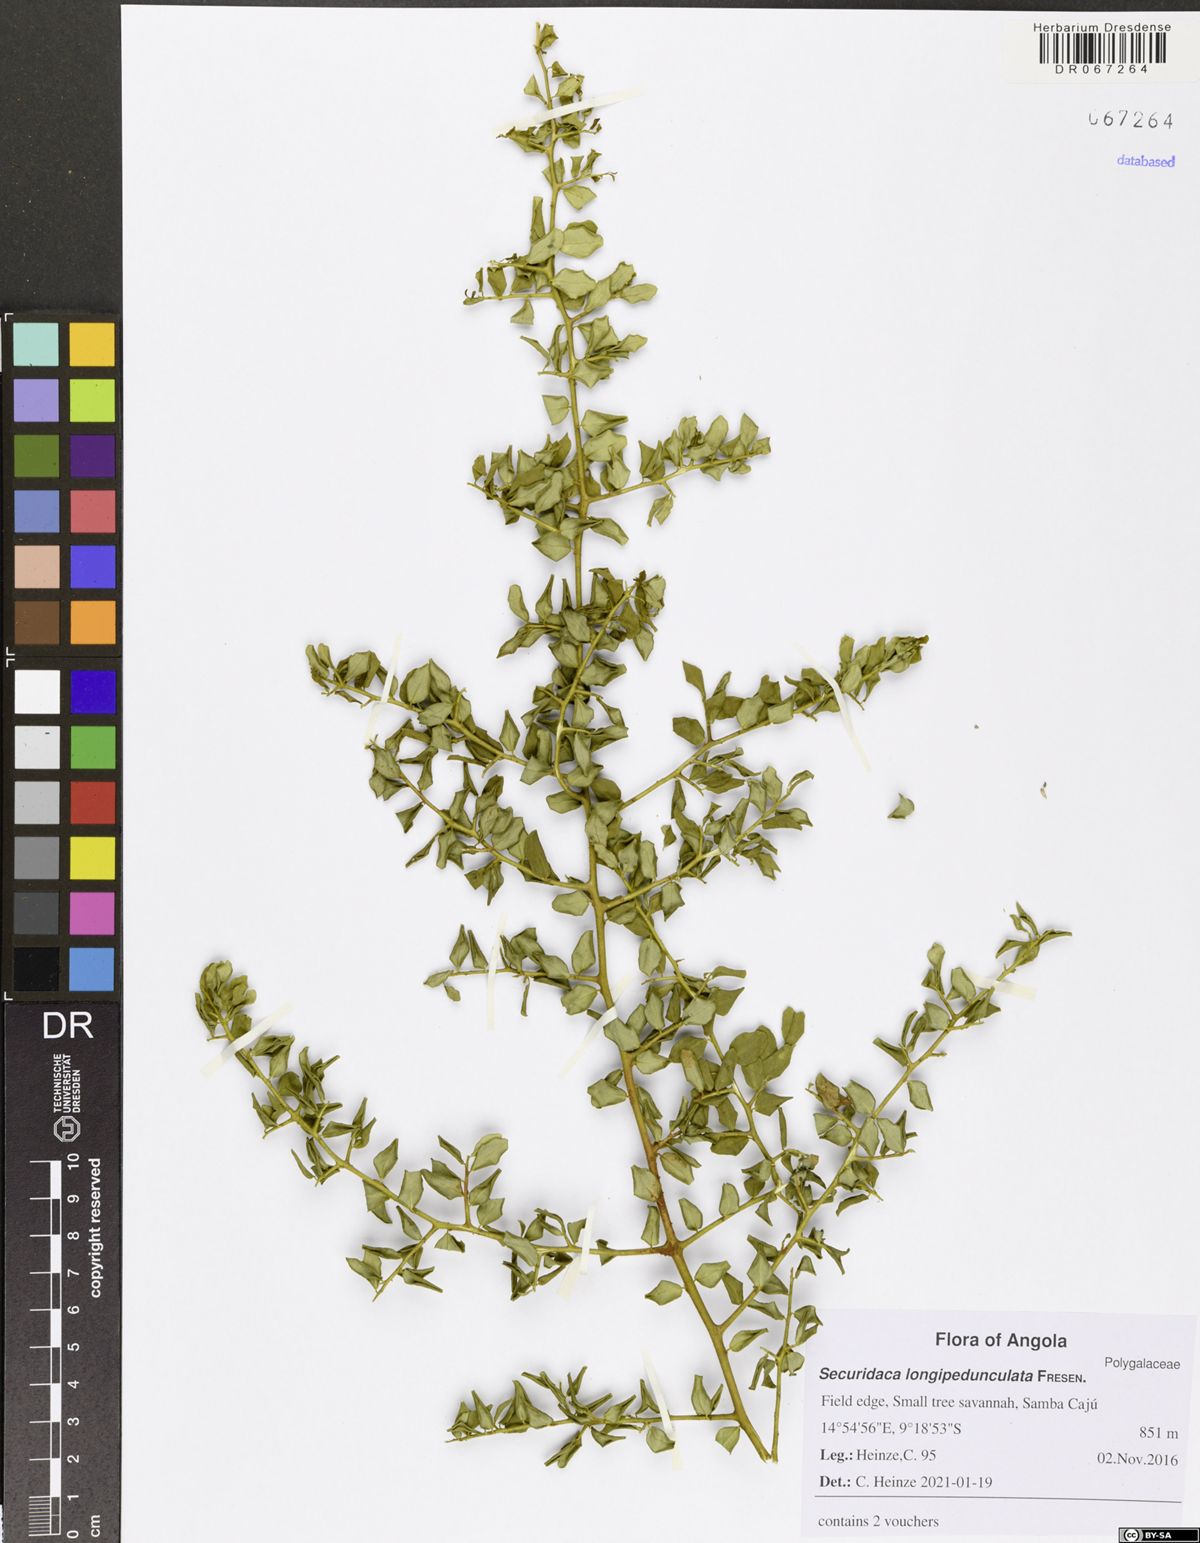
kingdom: Plantae
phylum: Tracheophyta
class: Magnoliopsida
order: Fabales
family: Polygalaceae
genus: Securidaca
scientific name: Securidaca longepedunculata
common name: Violet tree
